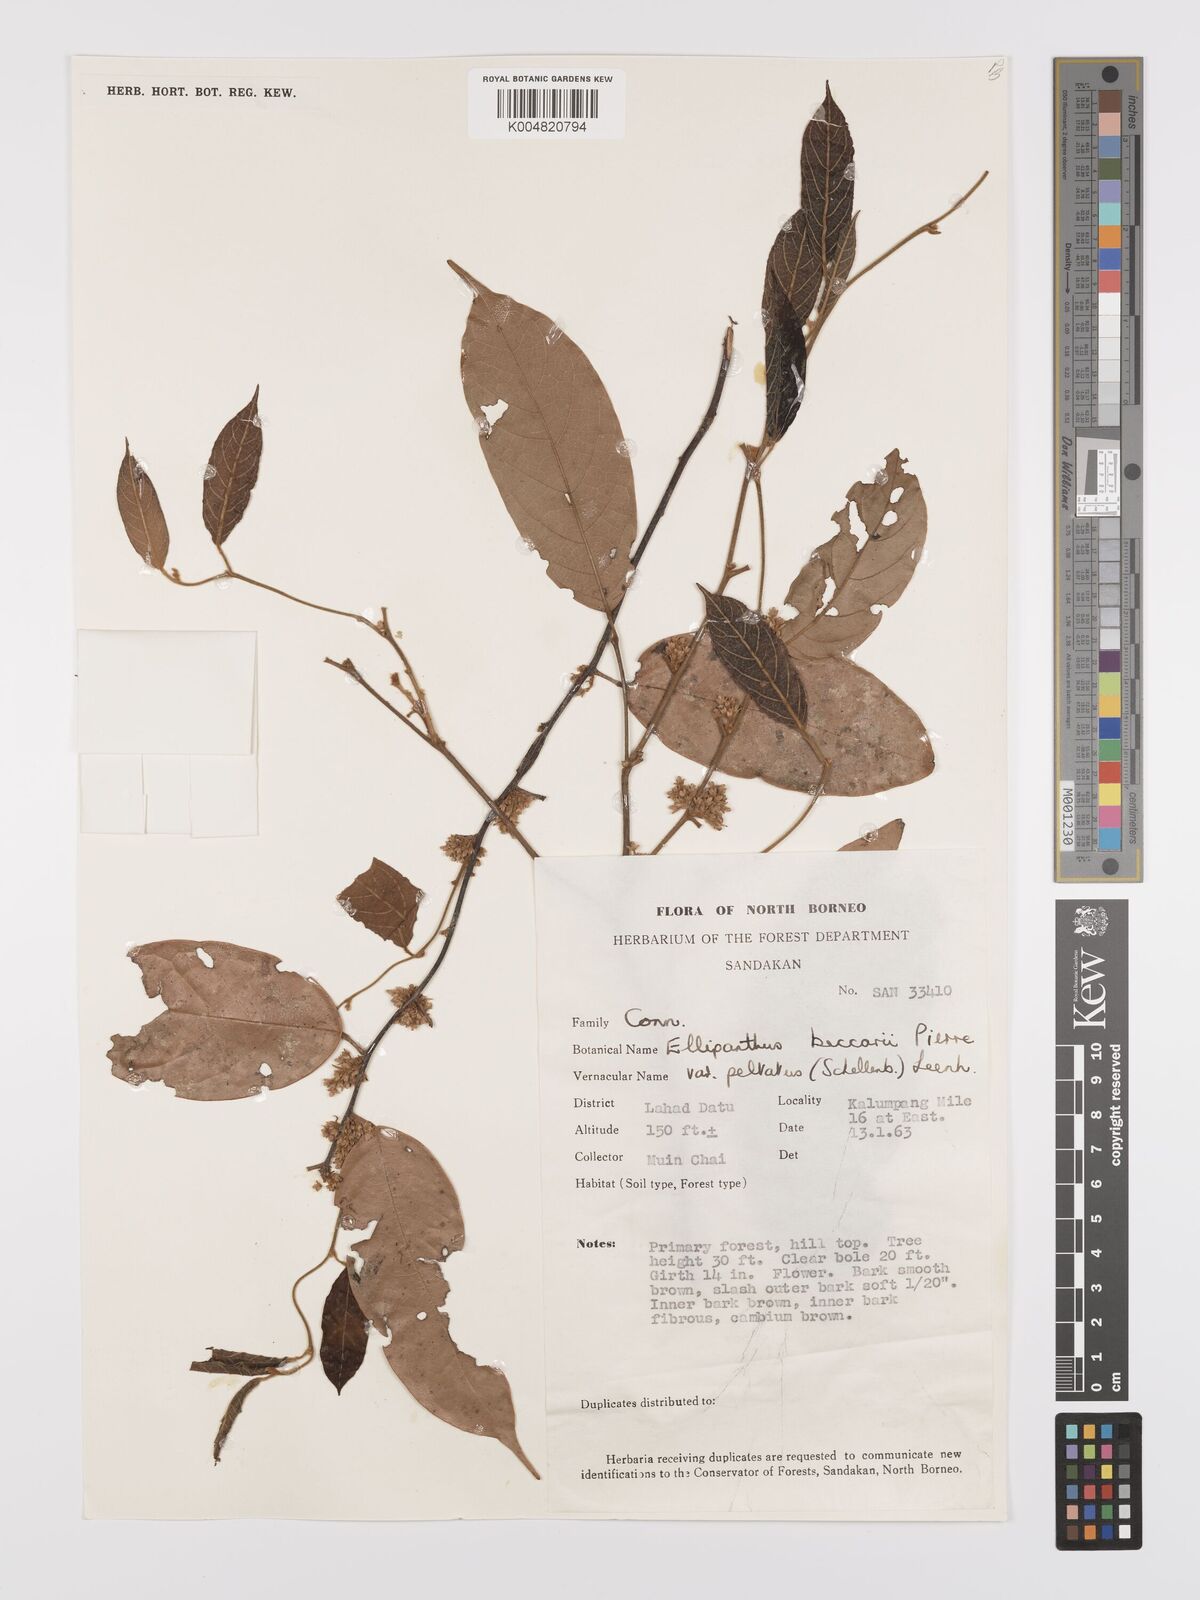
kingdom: Plantae
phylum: Tracheophyta
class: Magnoliopsida
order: Oxalidales
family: Connaraceae
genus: Ellipanthus
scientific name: Ellipanthus beccarii
